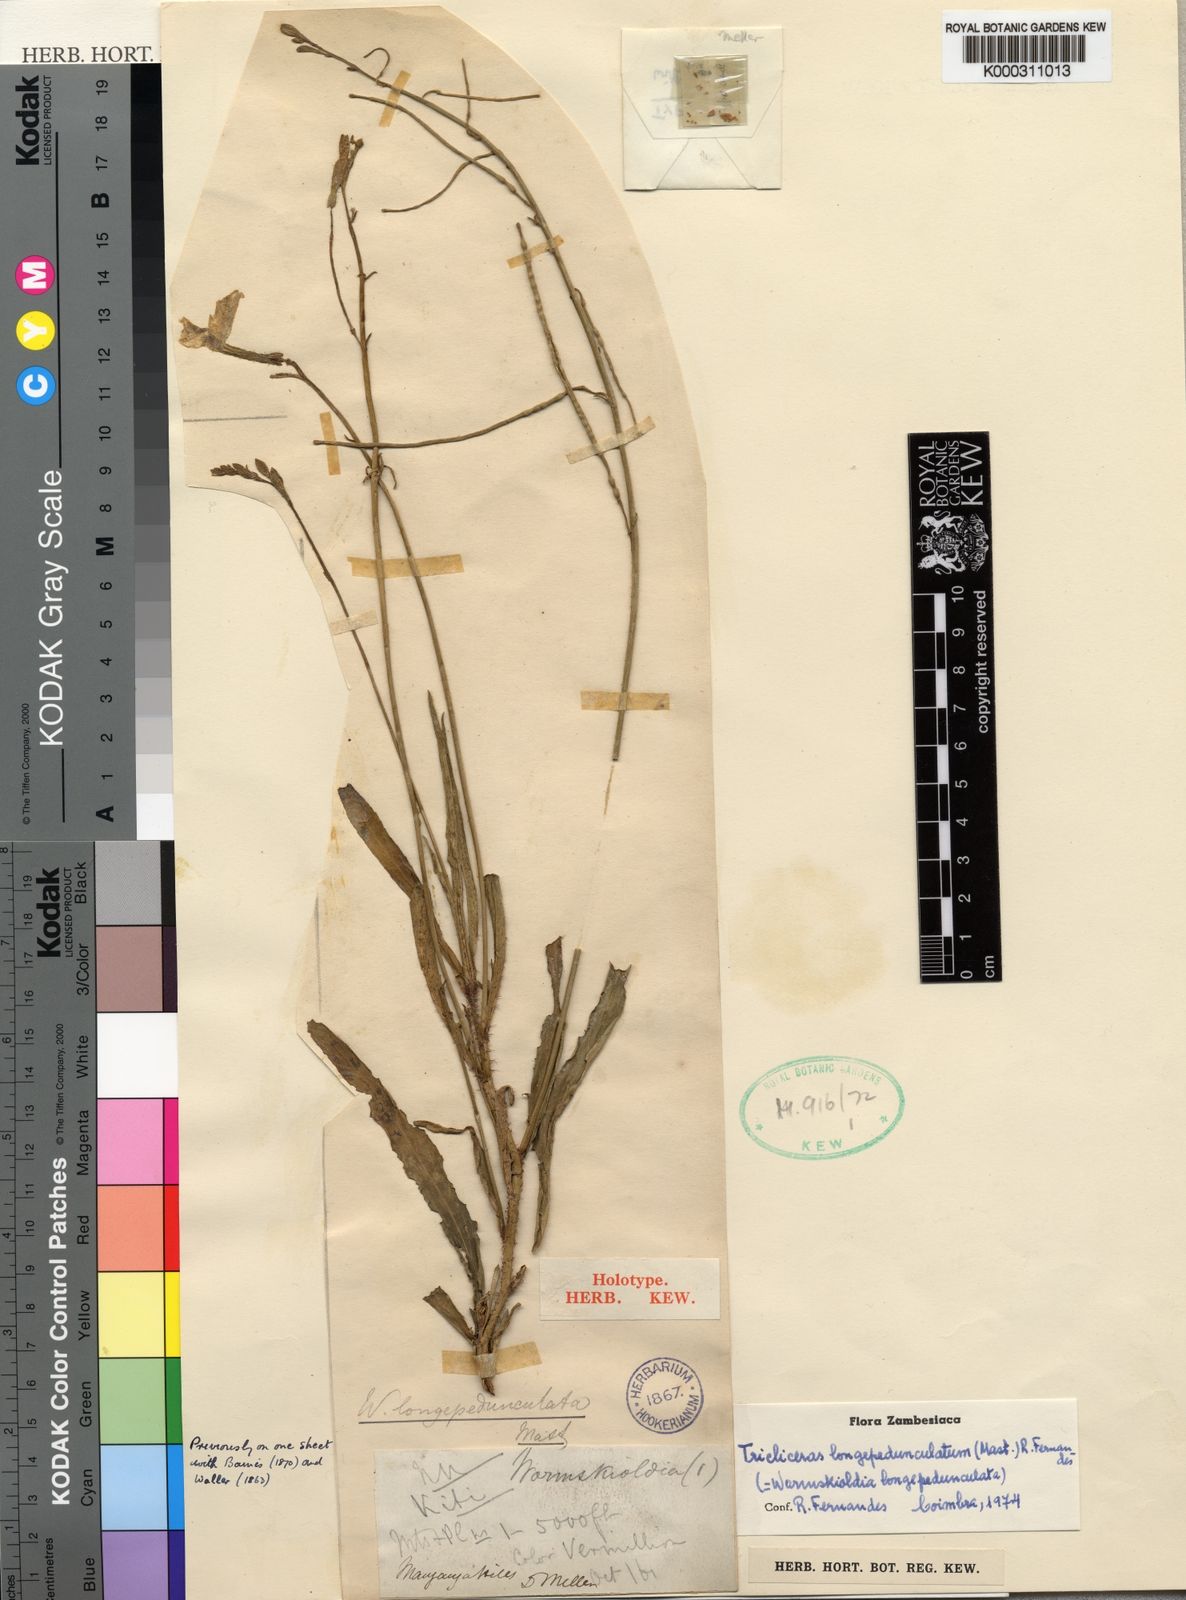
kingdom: Plantae
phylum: Tracheophyta
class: Magnoliopsida
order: Malpighiales
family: Turneraceae
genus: Tricliceras
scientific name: Tricliceras
